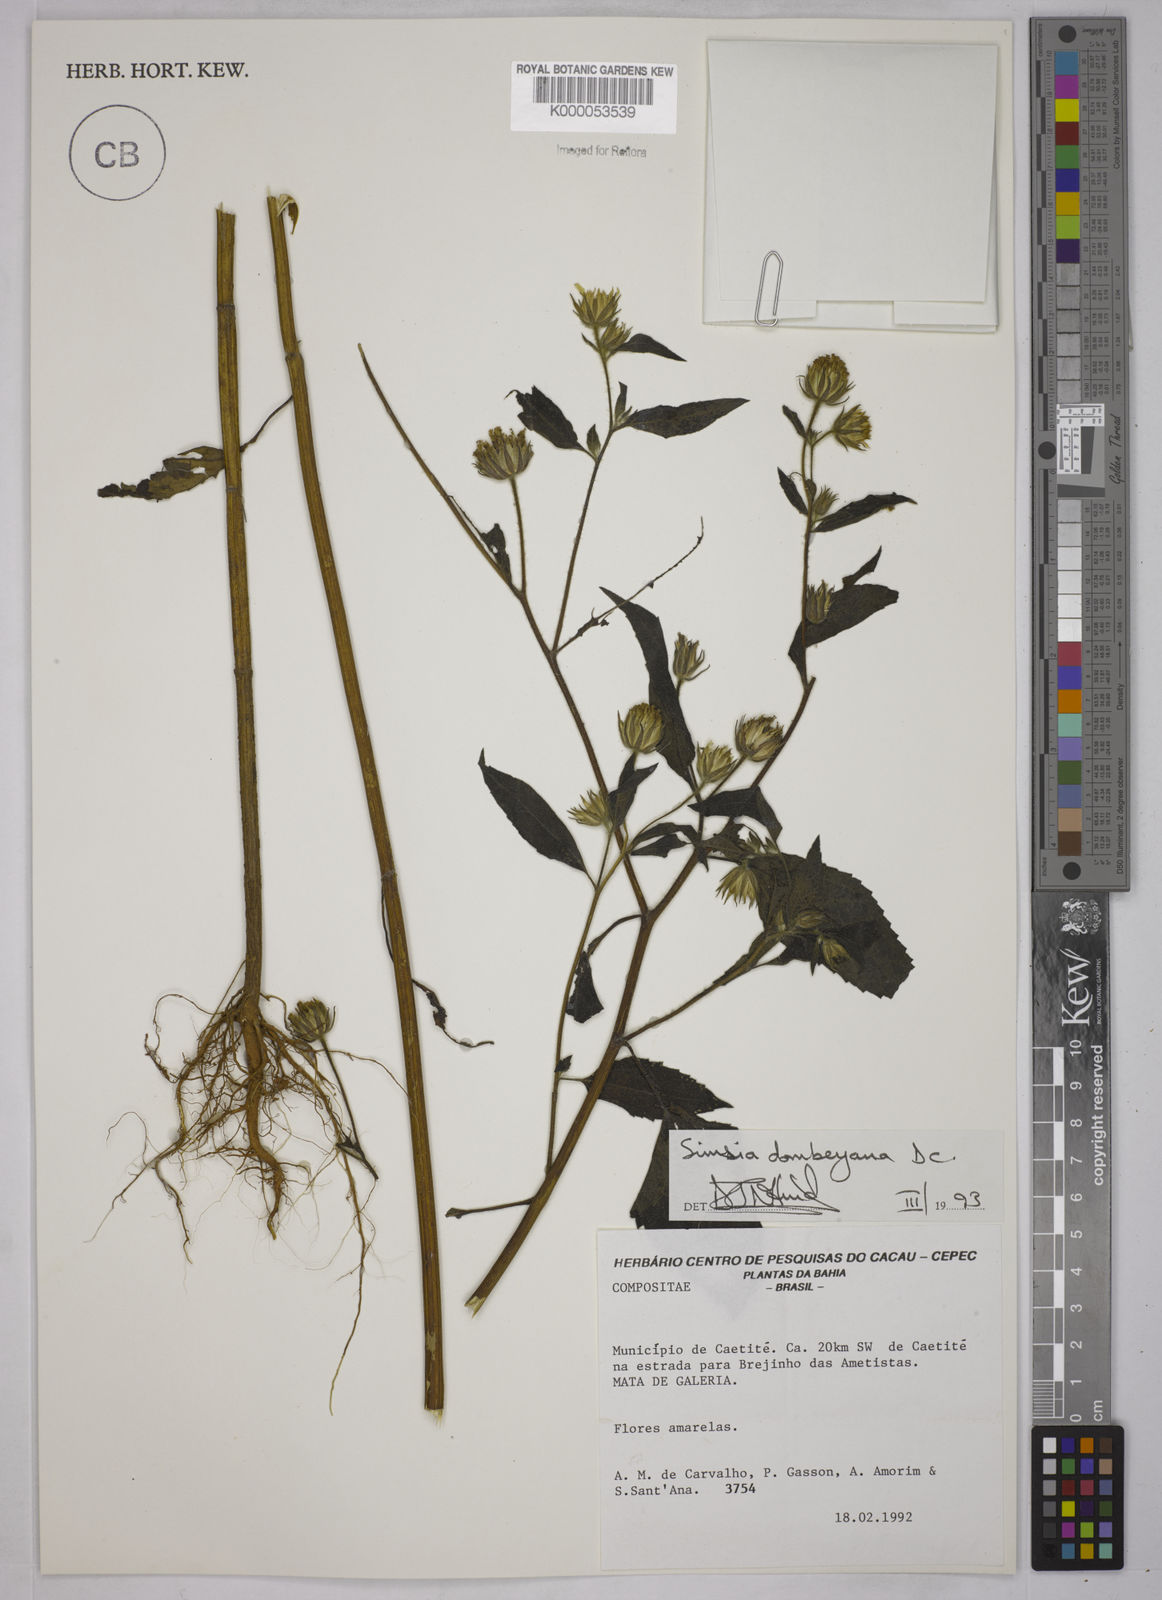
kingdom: Plantae
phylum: Tracheophyta
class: Magnoliopsida
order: Asterales
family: Asteraceae
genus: Simsia
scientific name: Simsia dombeyana
